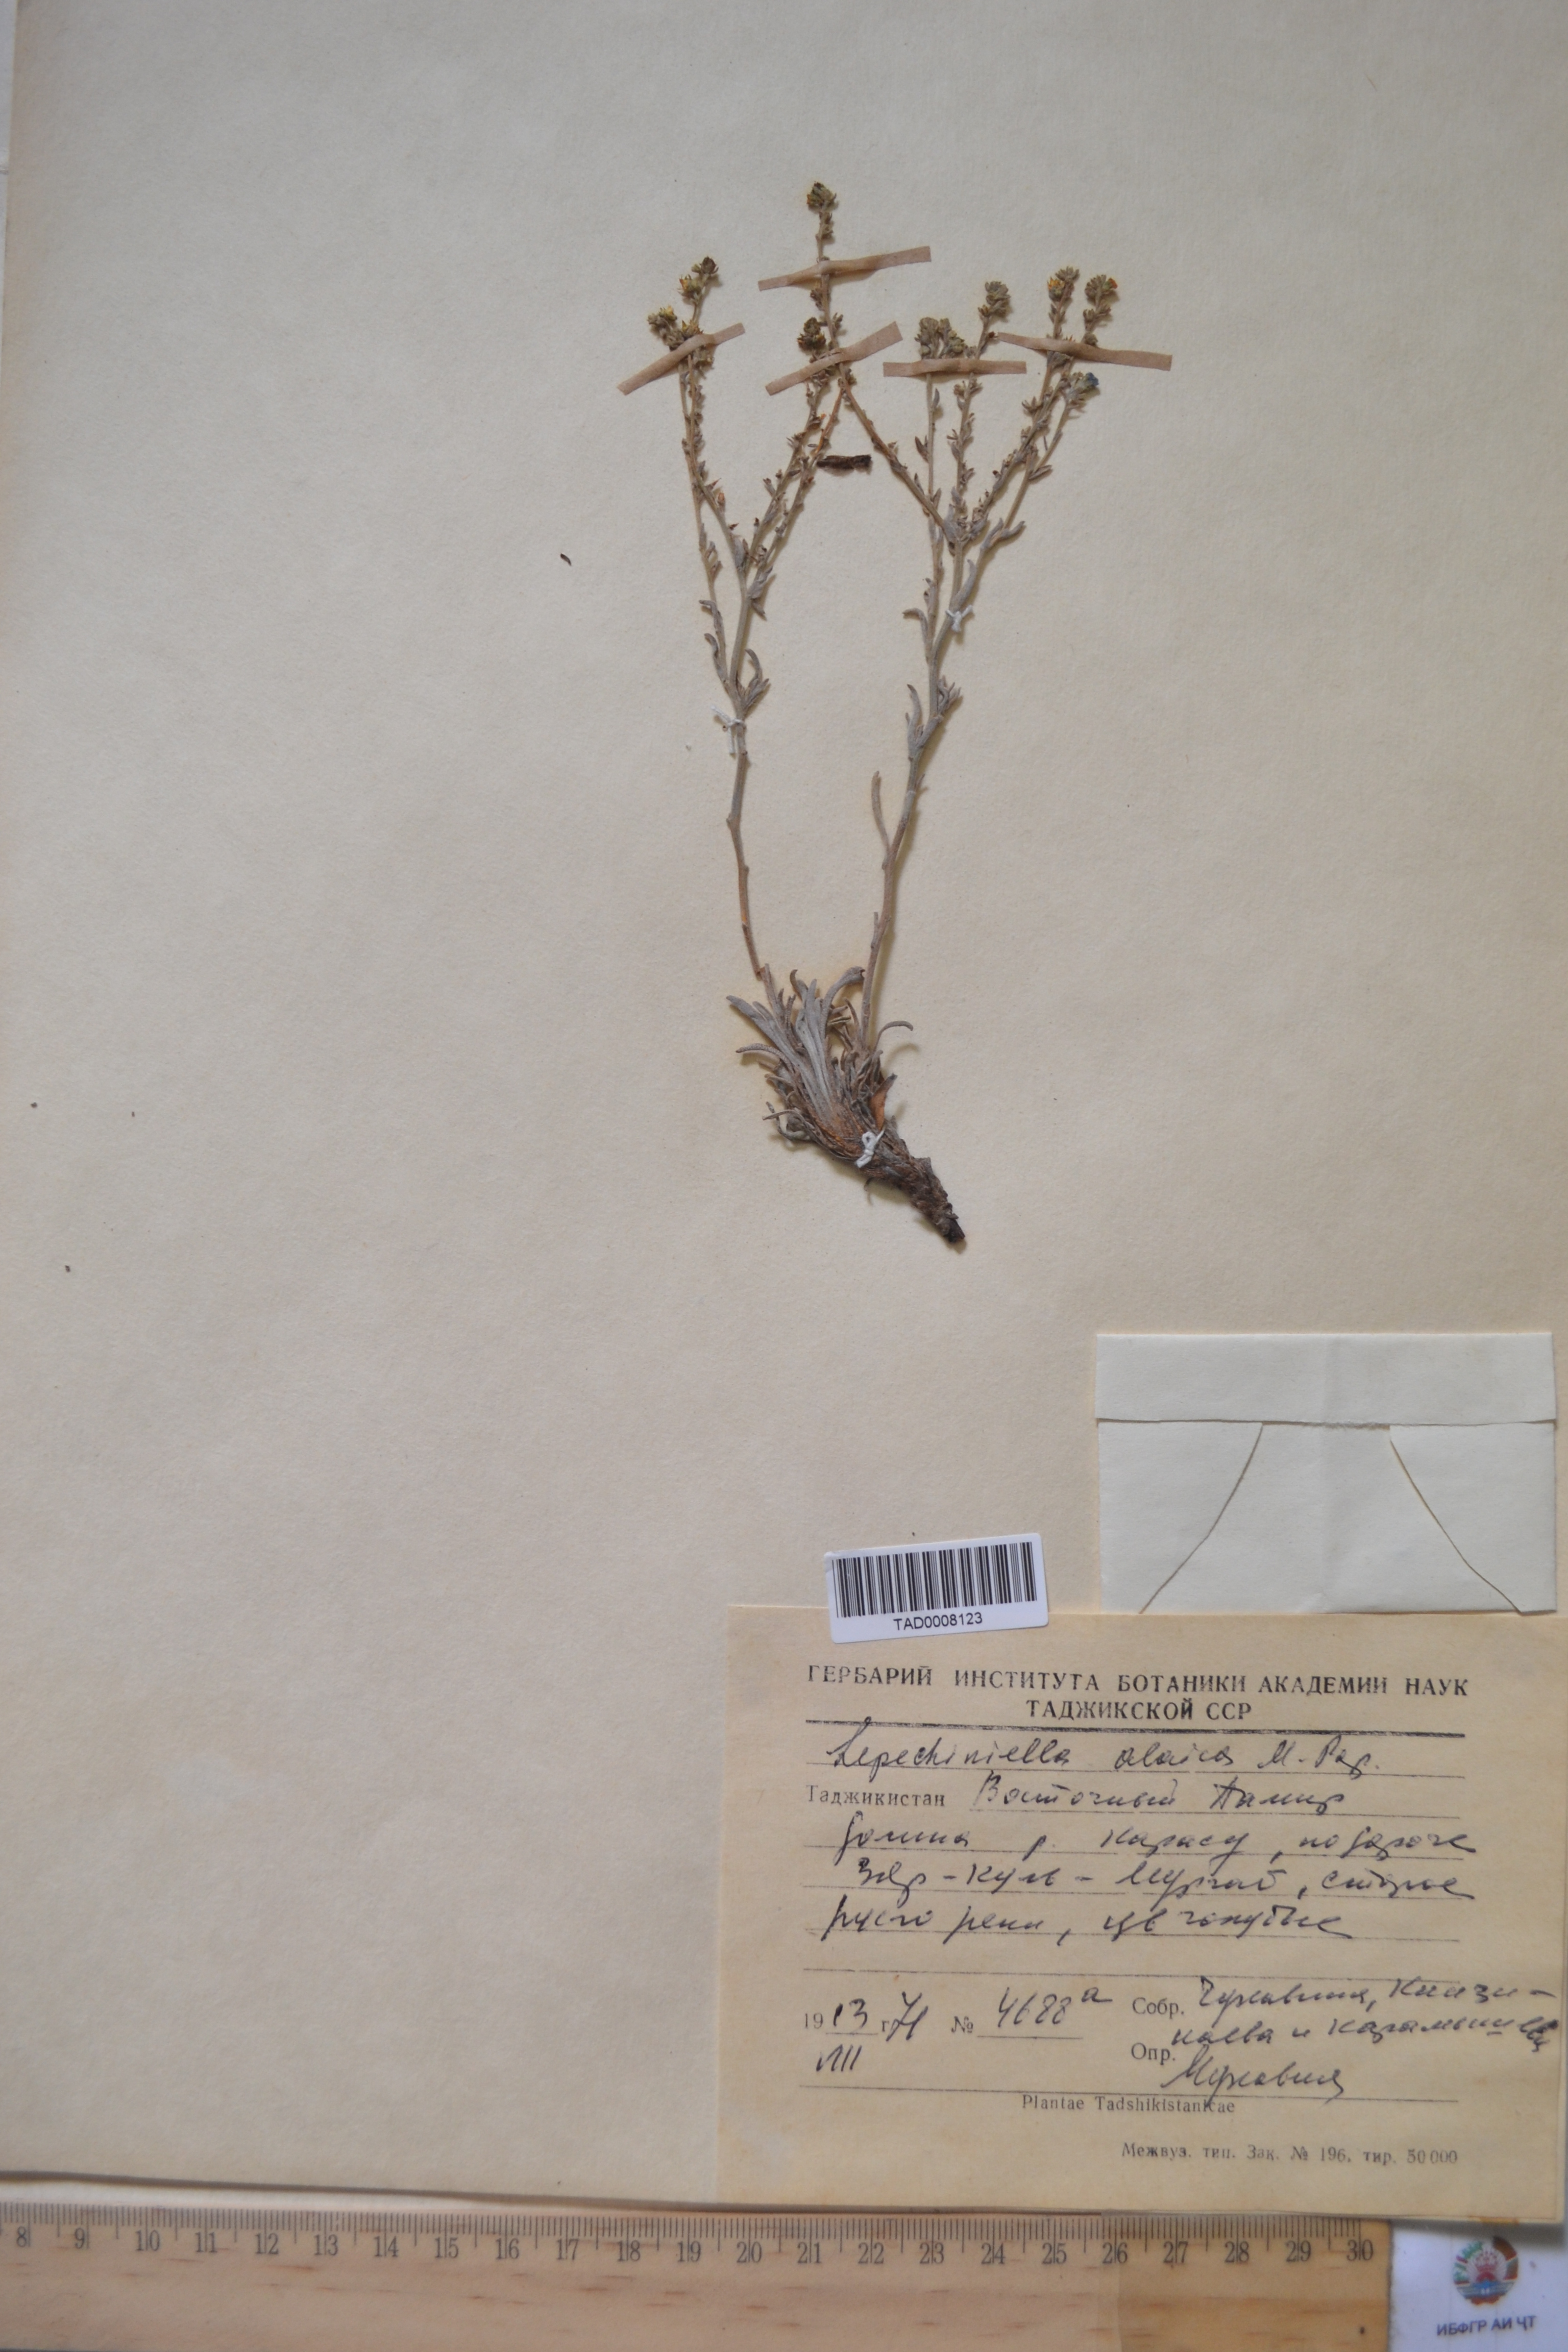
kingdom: Plantae
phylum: Tracheophyta
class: Magnoliopsida
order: Boraginales
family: Boraginaceae
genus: Lappula
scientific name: Lappula alaica
